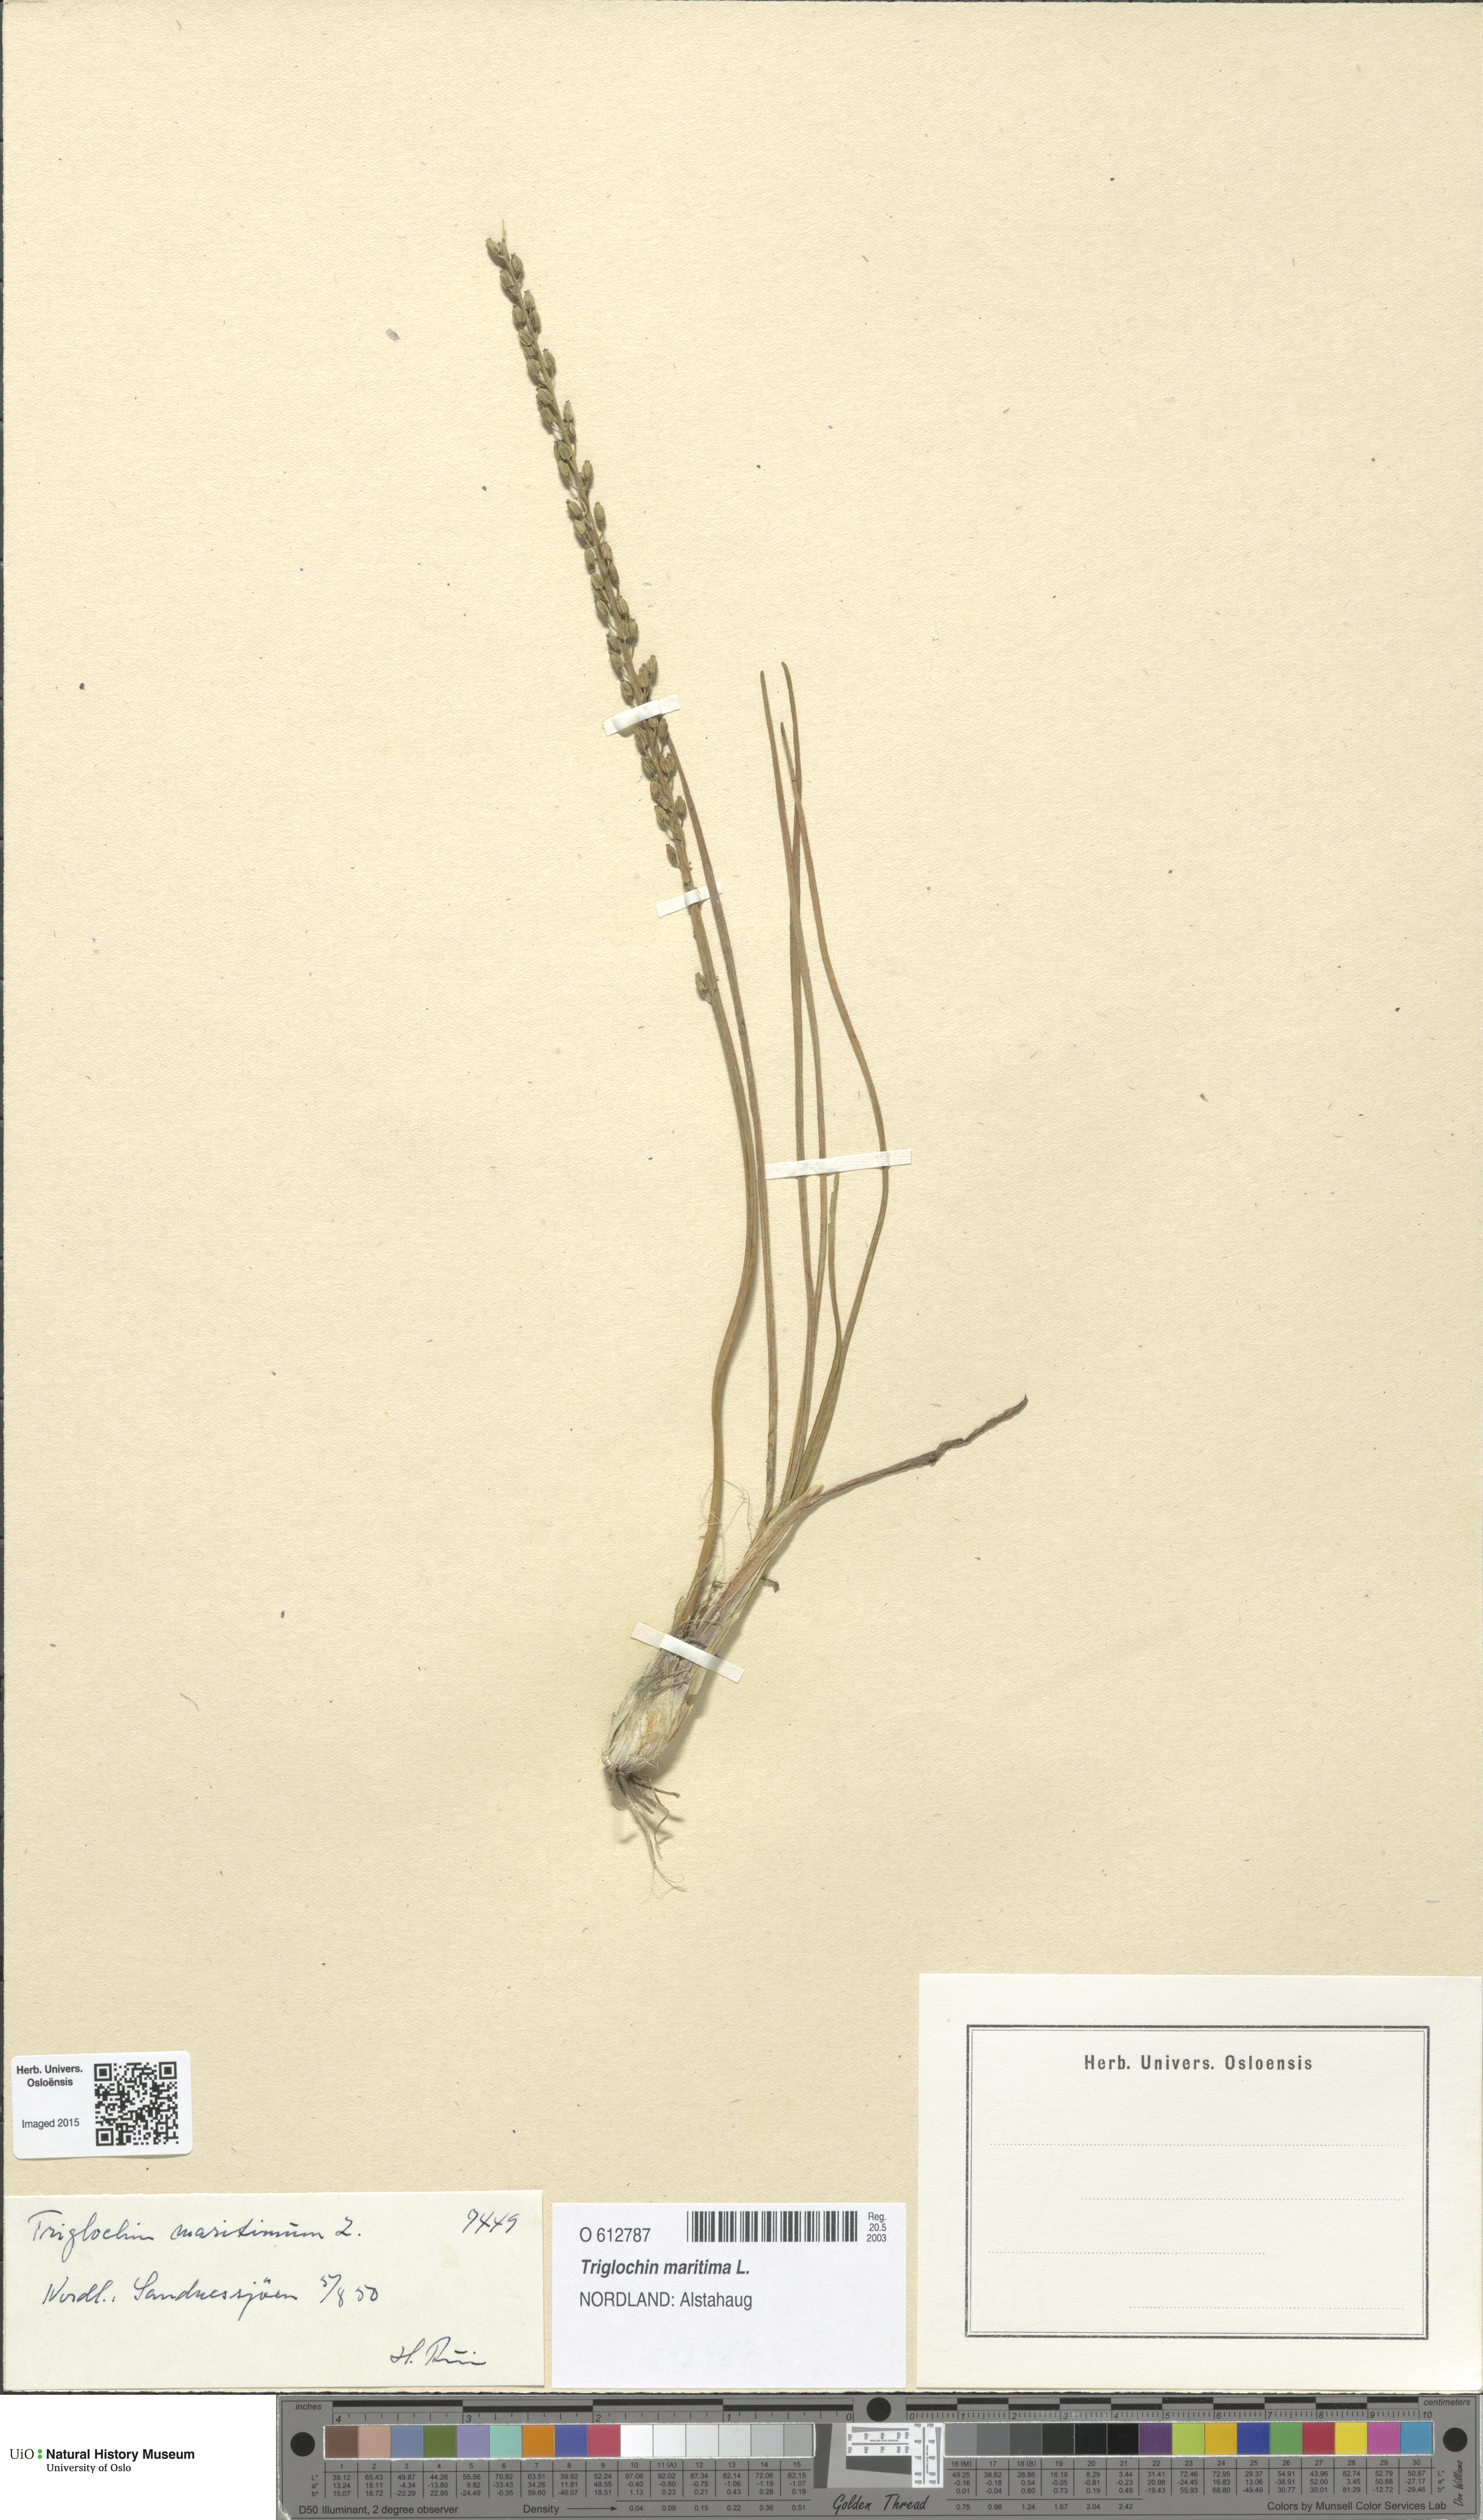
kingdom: Plantae
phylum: Tracheophyta
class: Liliopsida
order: Alismatales
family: Juncaginaceae
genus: Triglochin
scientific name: Triglochin maritima
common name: Sea arrowgrass
